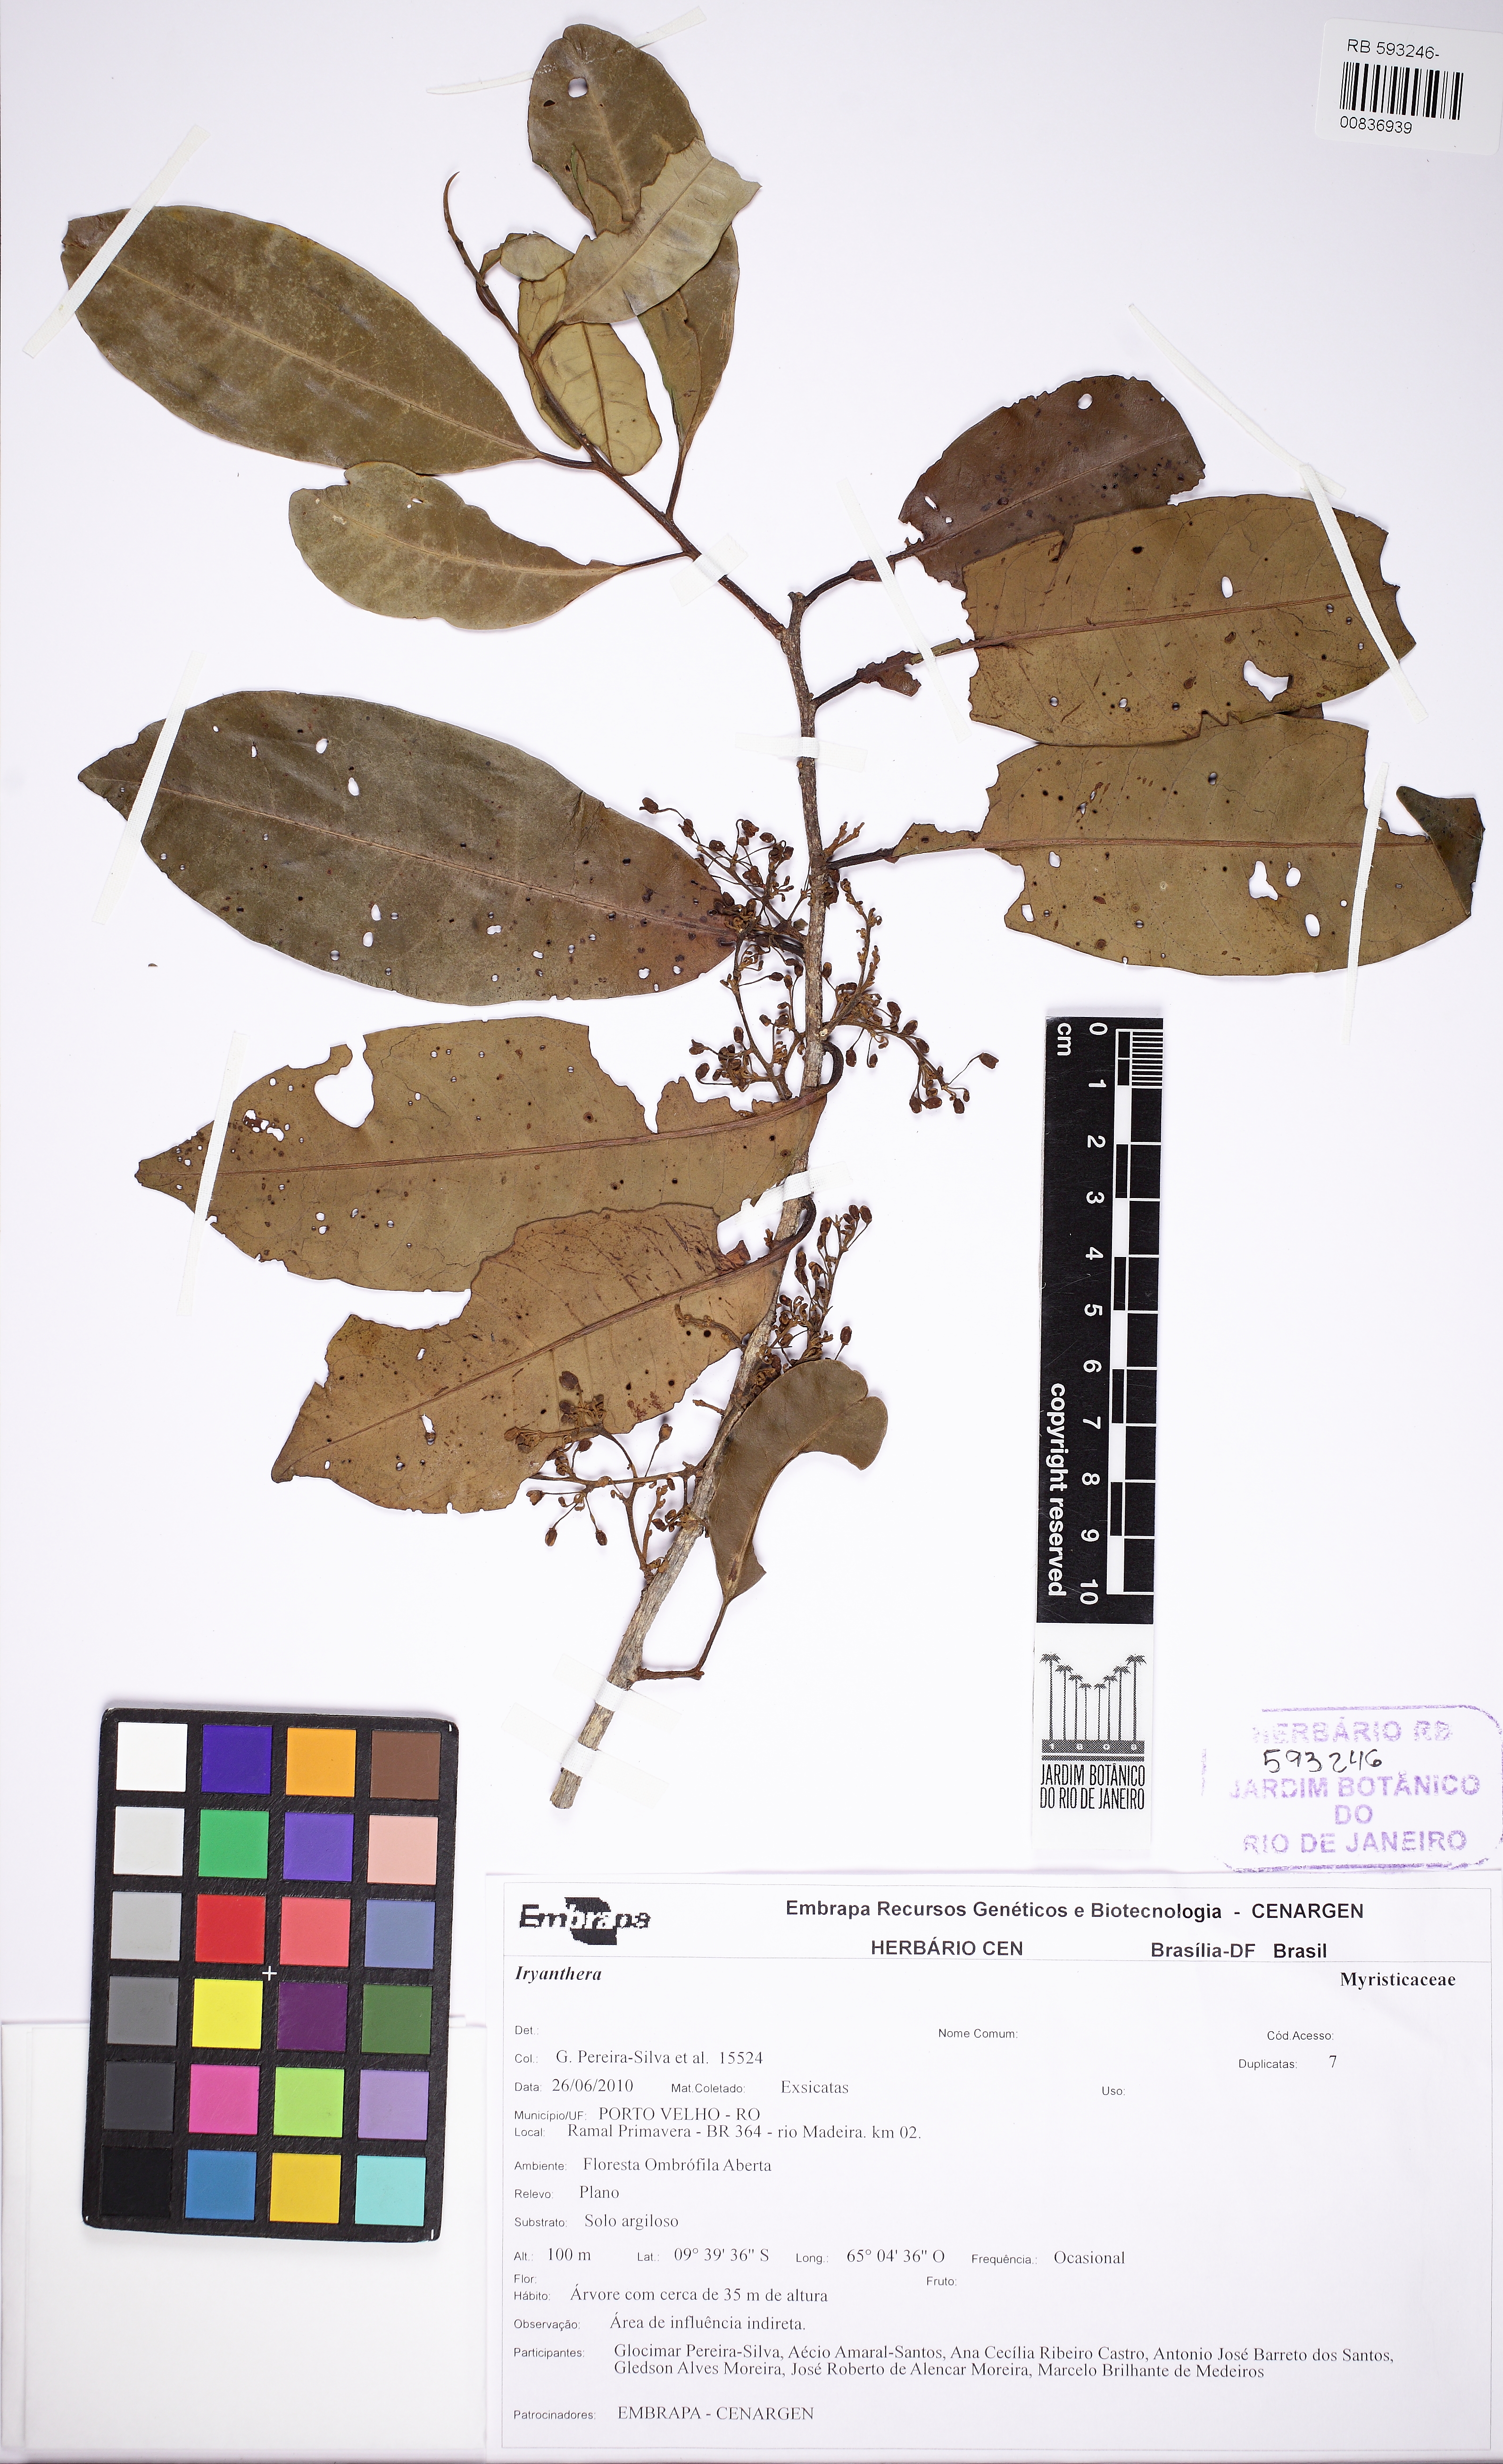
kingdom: Plantae
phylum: Tracheophyta
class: Magnoliopsida
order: Magnoliales
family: Myristicaceae
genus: Iryanthera
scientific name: Iryanthera
